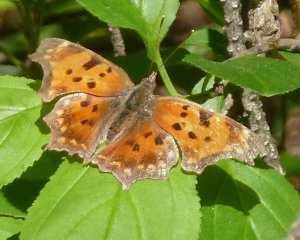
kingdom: Animalia
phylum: Arthropoda
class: Insecta
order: Lepidoptera
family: Nymphalidae
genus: Polygonia
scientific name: Polygonia comma
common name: Eastern Comma
